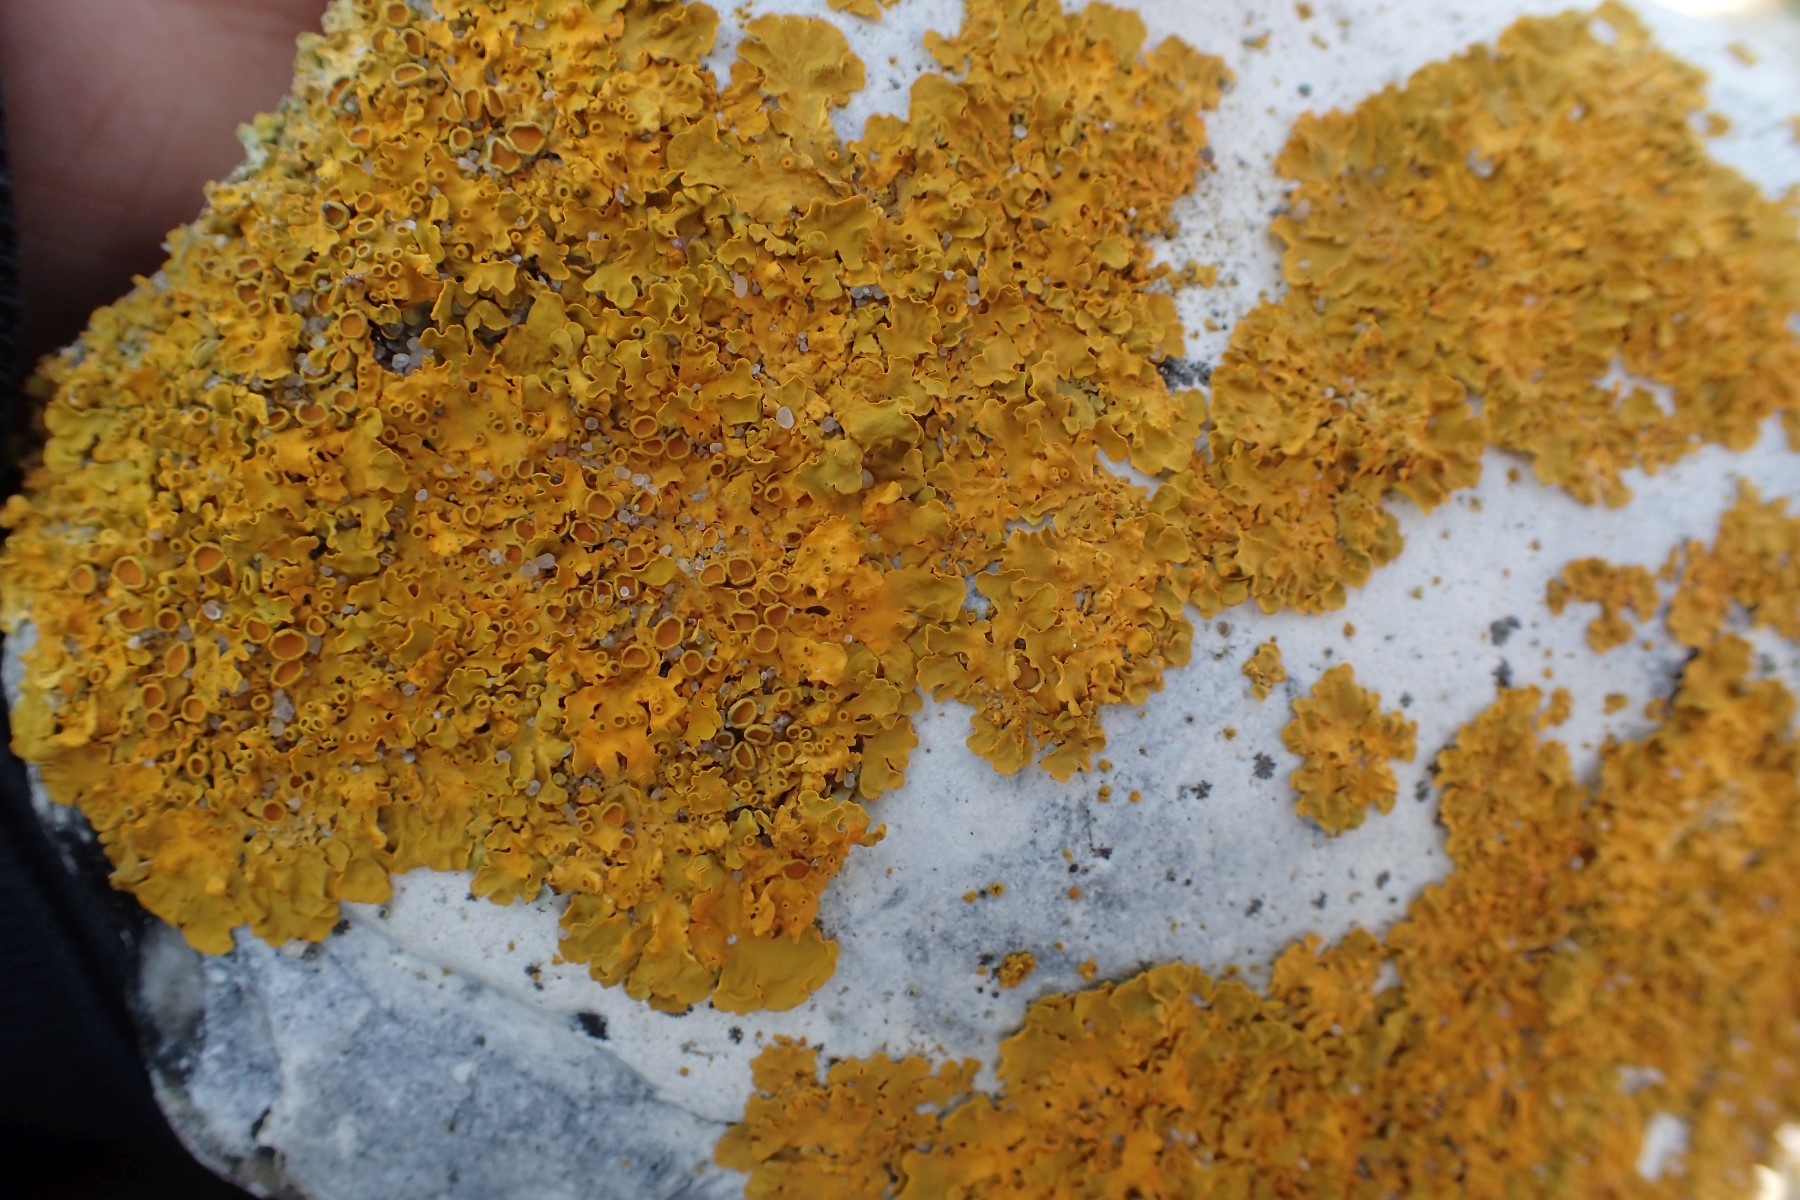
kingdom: Fungi
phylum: Ascomycota
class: Lecanoromycetes
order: Teloschistales
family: Teloschistaceae
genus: Xanthoria
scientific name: Xanthoria parietina
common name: almindelig væggelav
